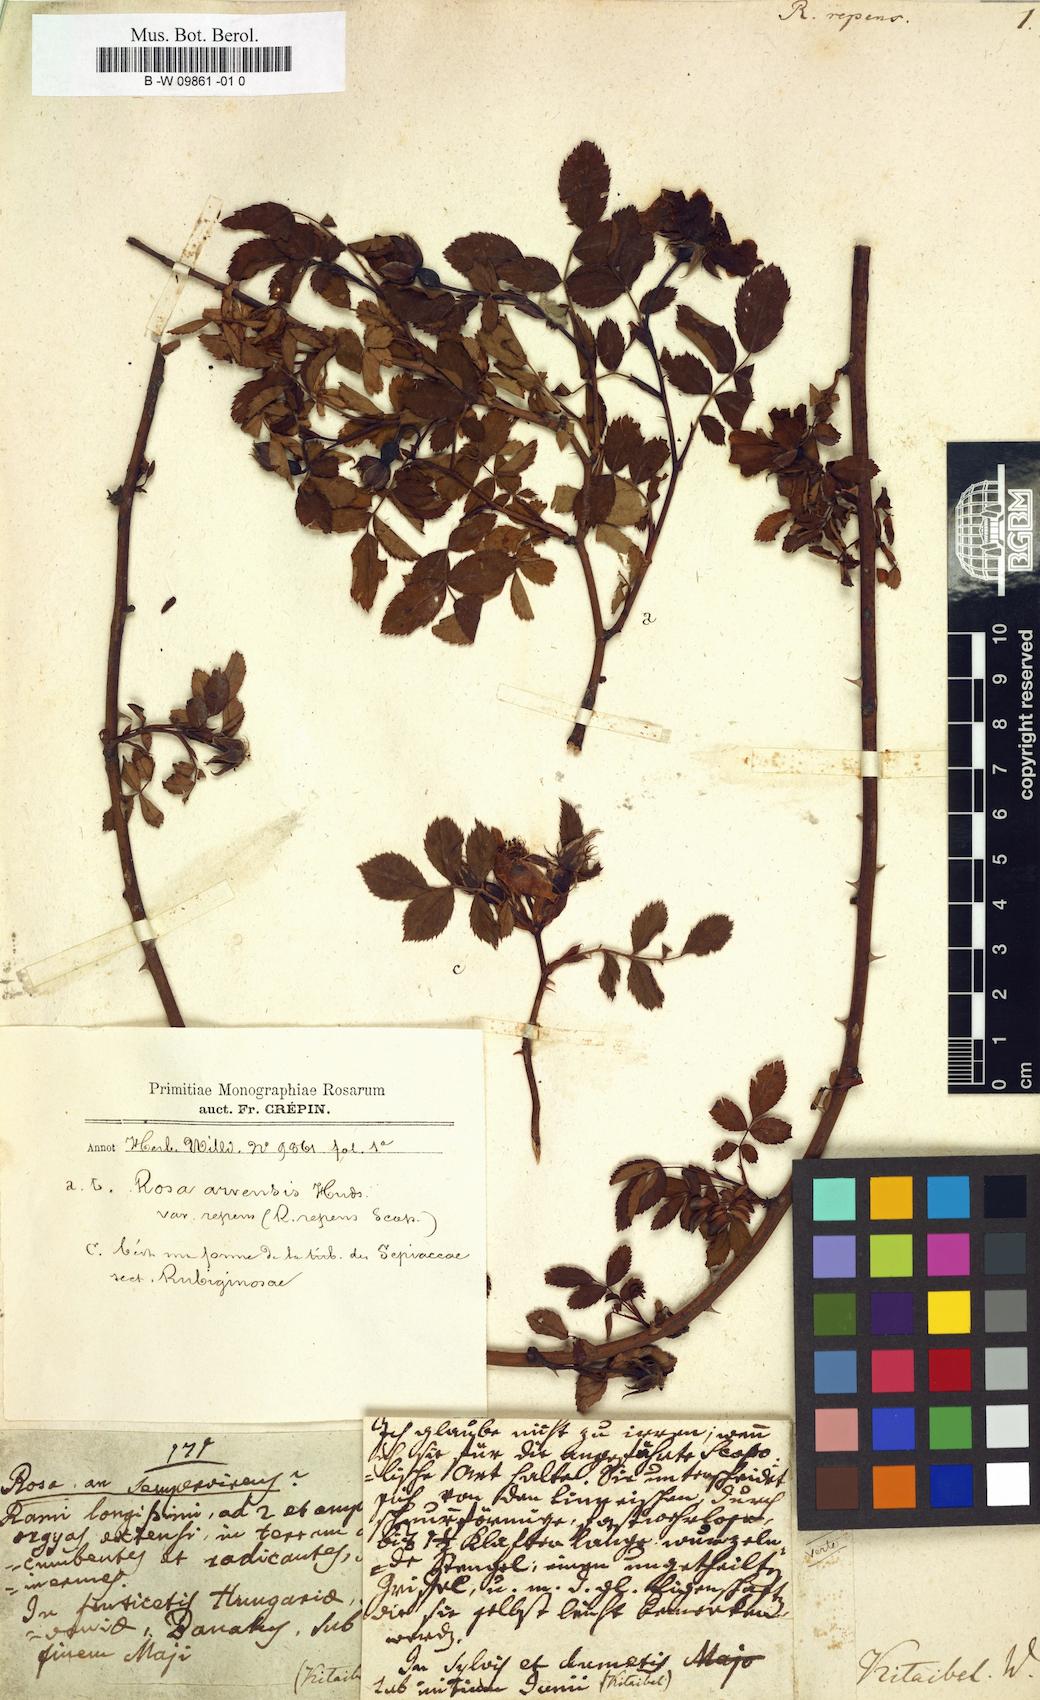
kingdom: Plantae
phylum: Tracheophyta
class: Magnoliopsida
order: Rosales
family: Rosaceae
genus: Rosa
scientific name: Rosa
